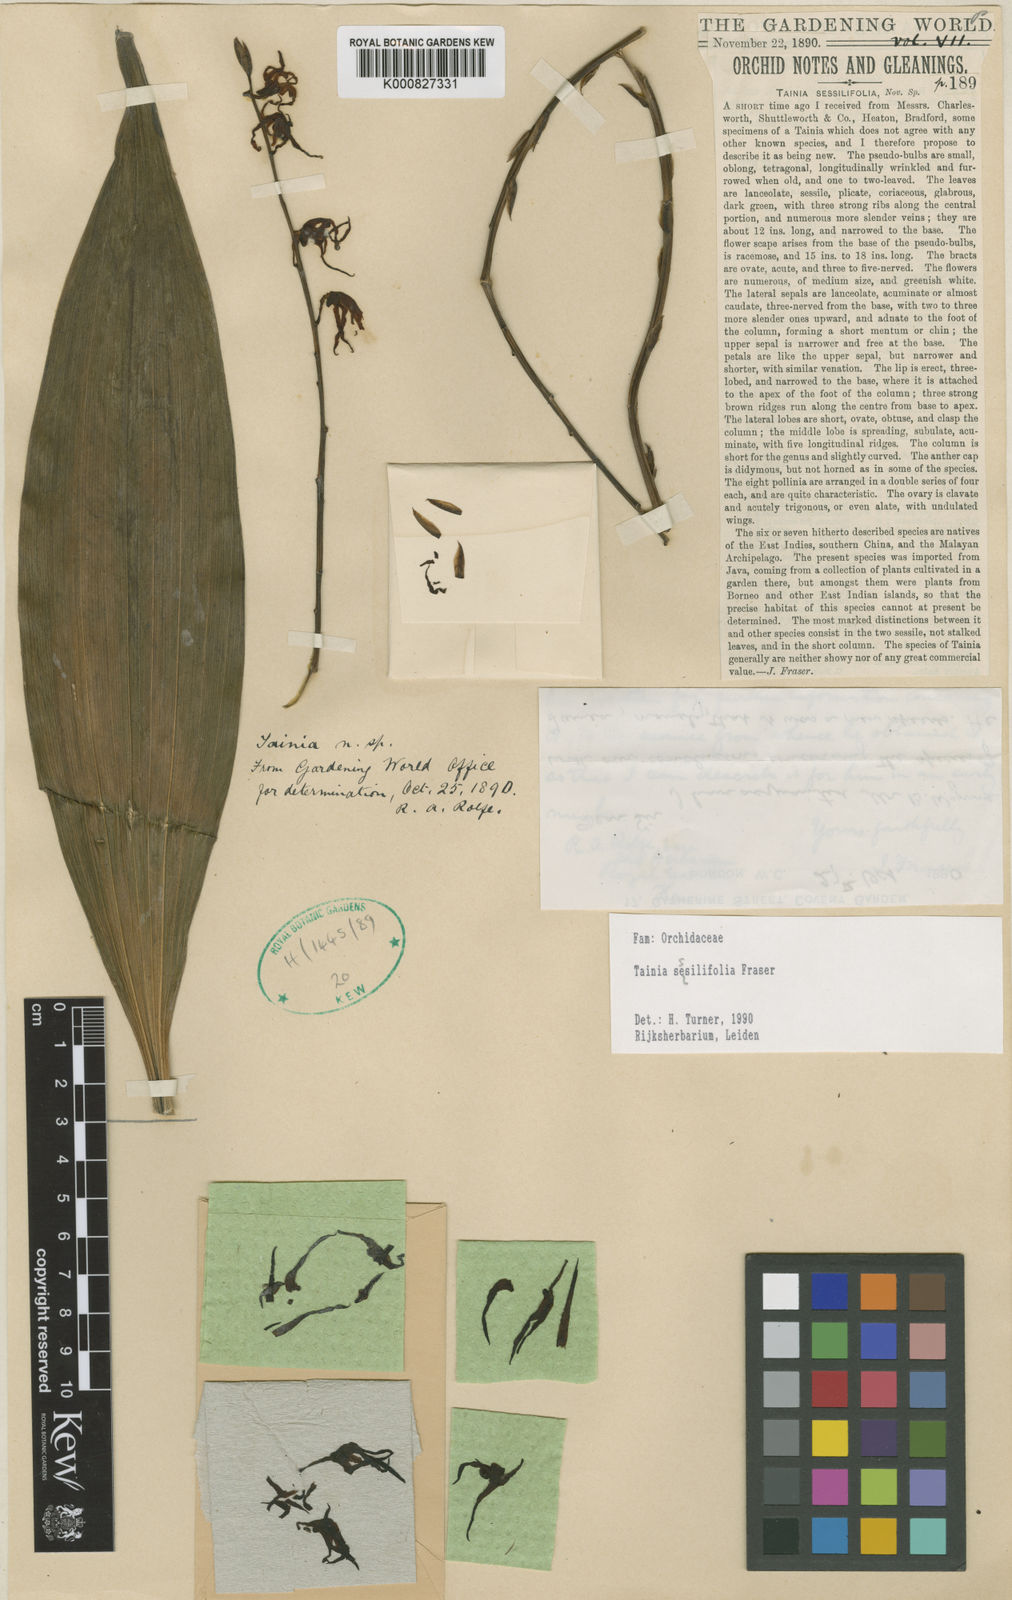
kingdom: Plantae
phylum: Tracheophyta
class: Liliopsida
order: Asparagales
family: Orchidaceae
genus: Eria
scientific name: Eria sessilifolia
